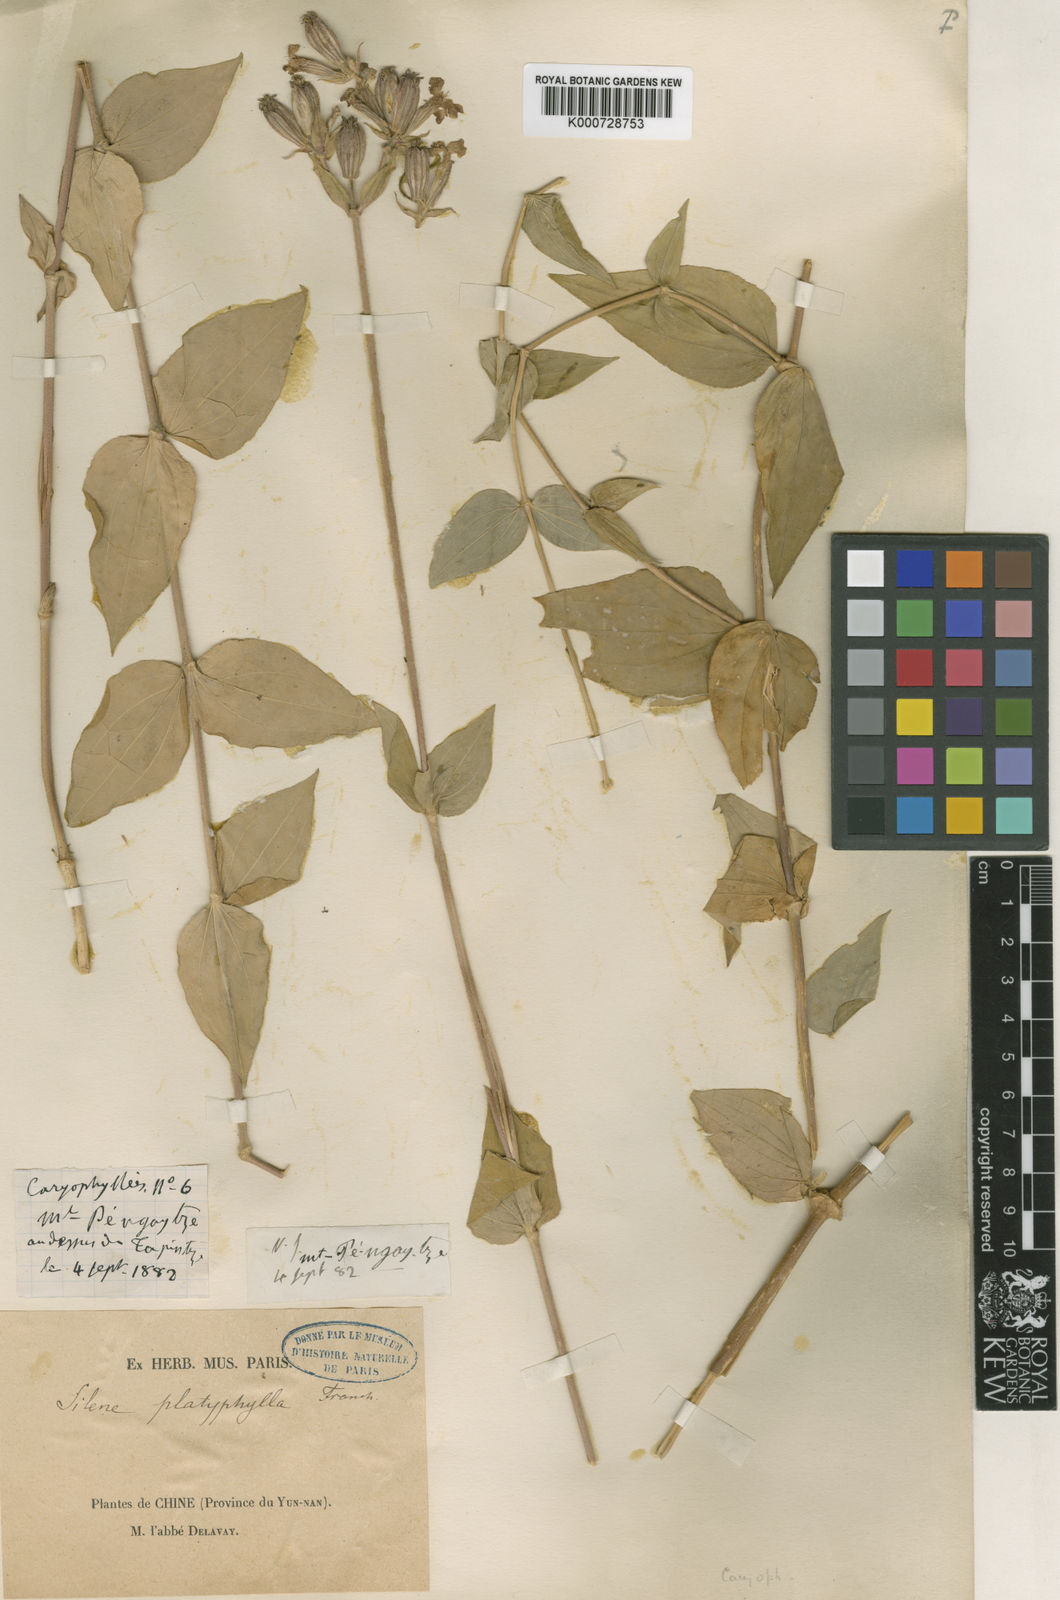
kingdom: Plantae
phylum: Tracheophyta
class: Magnoliopsida
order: Caryophyllales
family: Caryophyllaceae
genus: Silene
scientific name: Silene platyphylla
